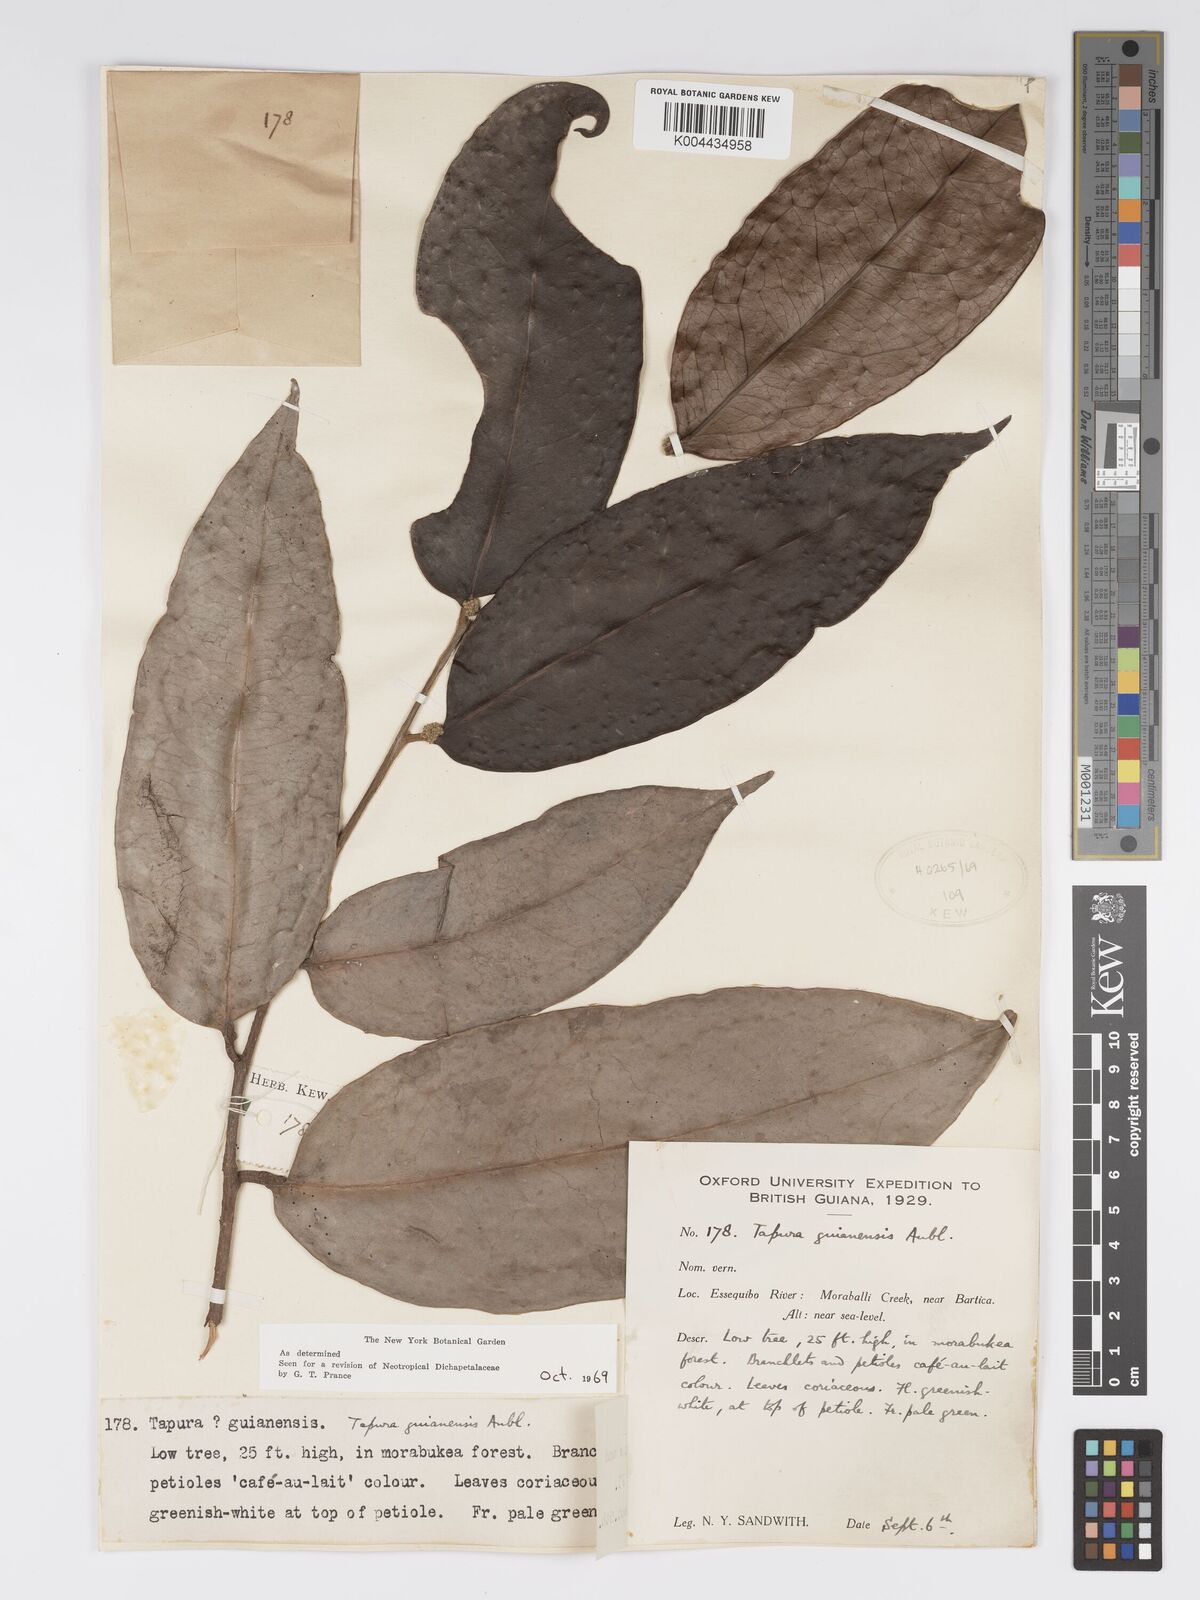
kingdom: Plantae
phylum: Tracheophyta
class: Magnoliopsida
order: Malpighiales
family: Dichapetalaceae
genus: Tapura
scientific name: Tapura guianensis
